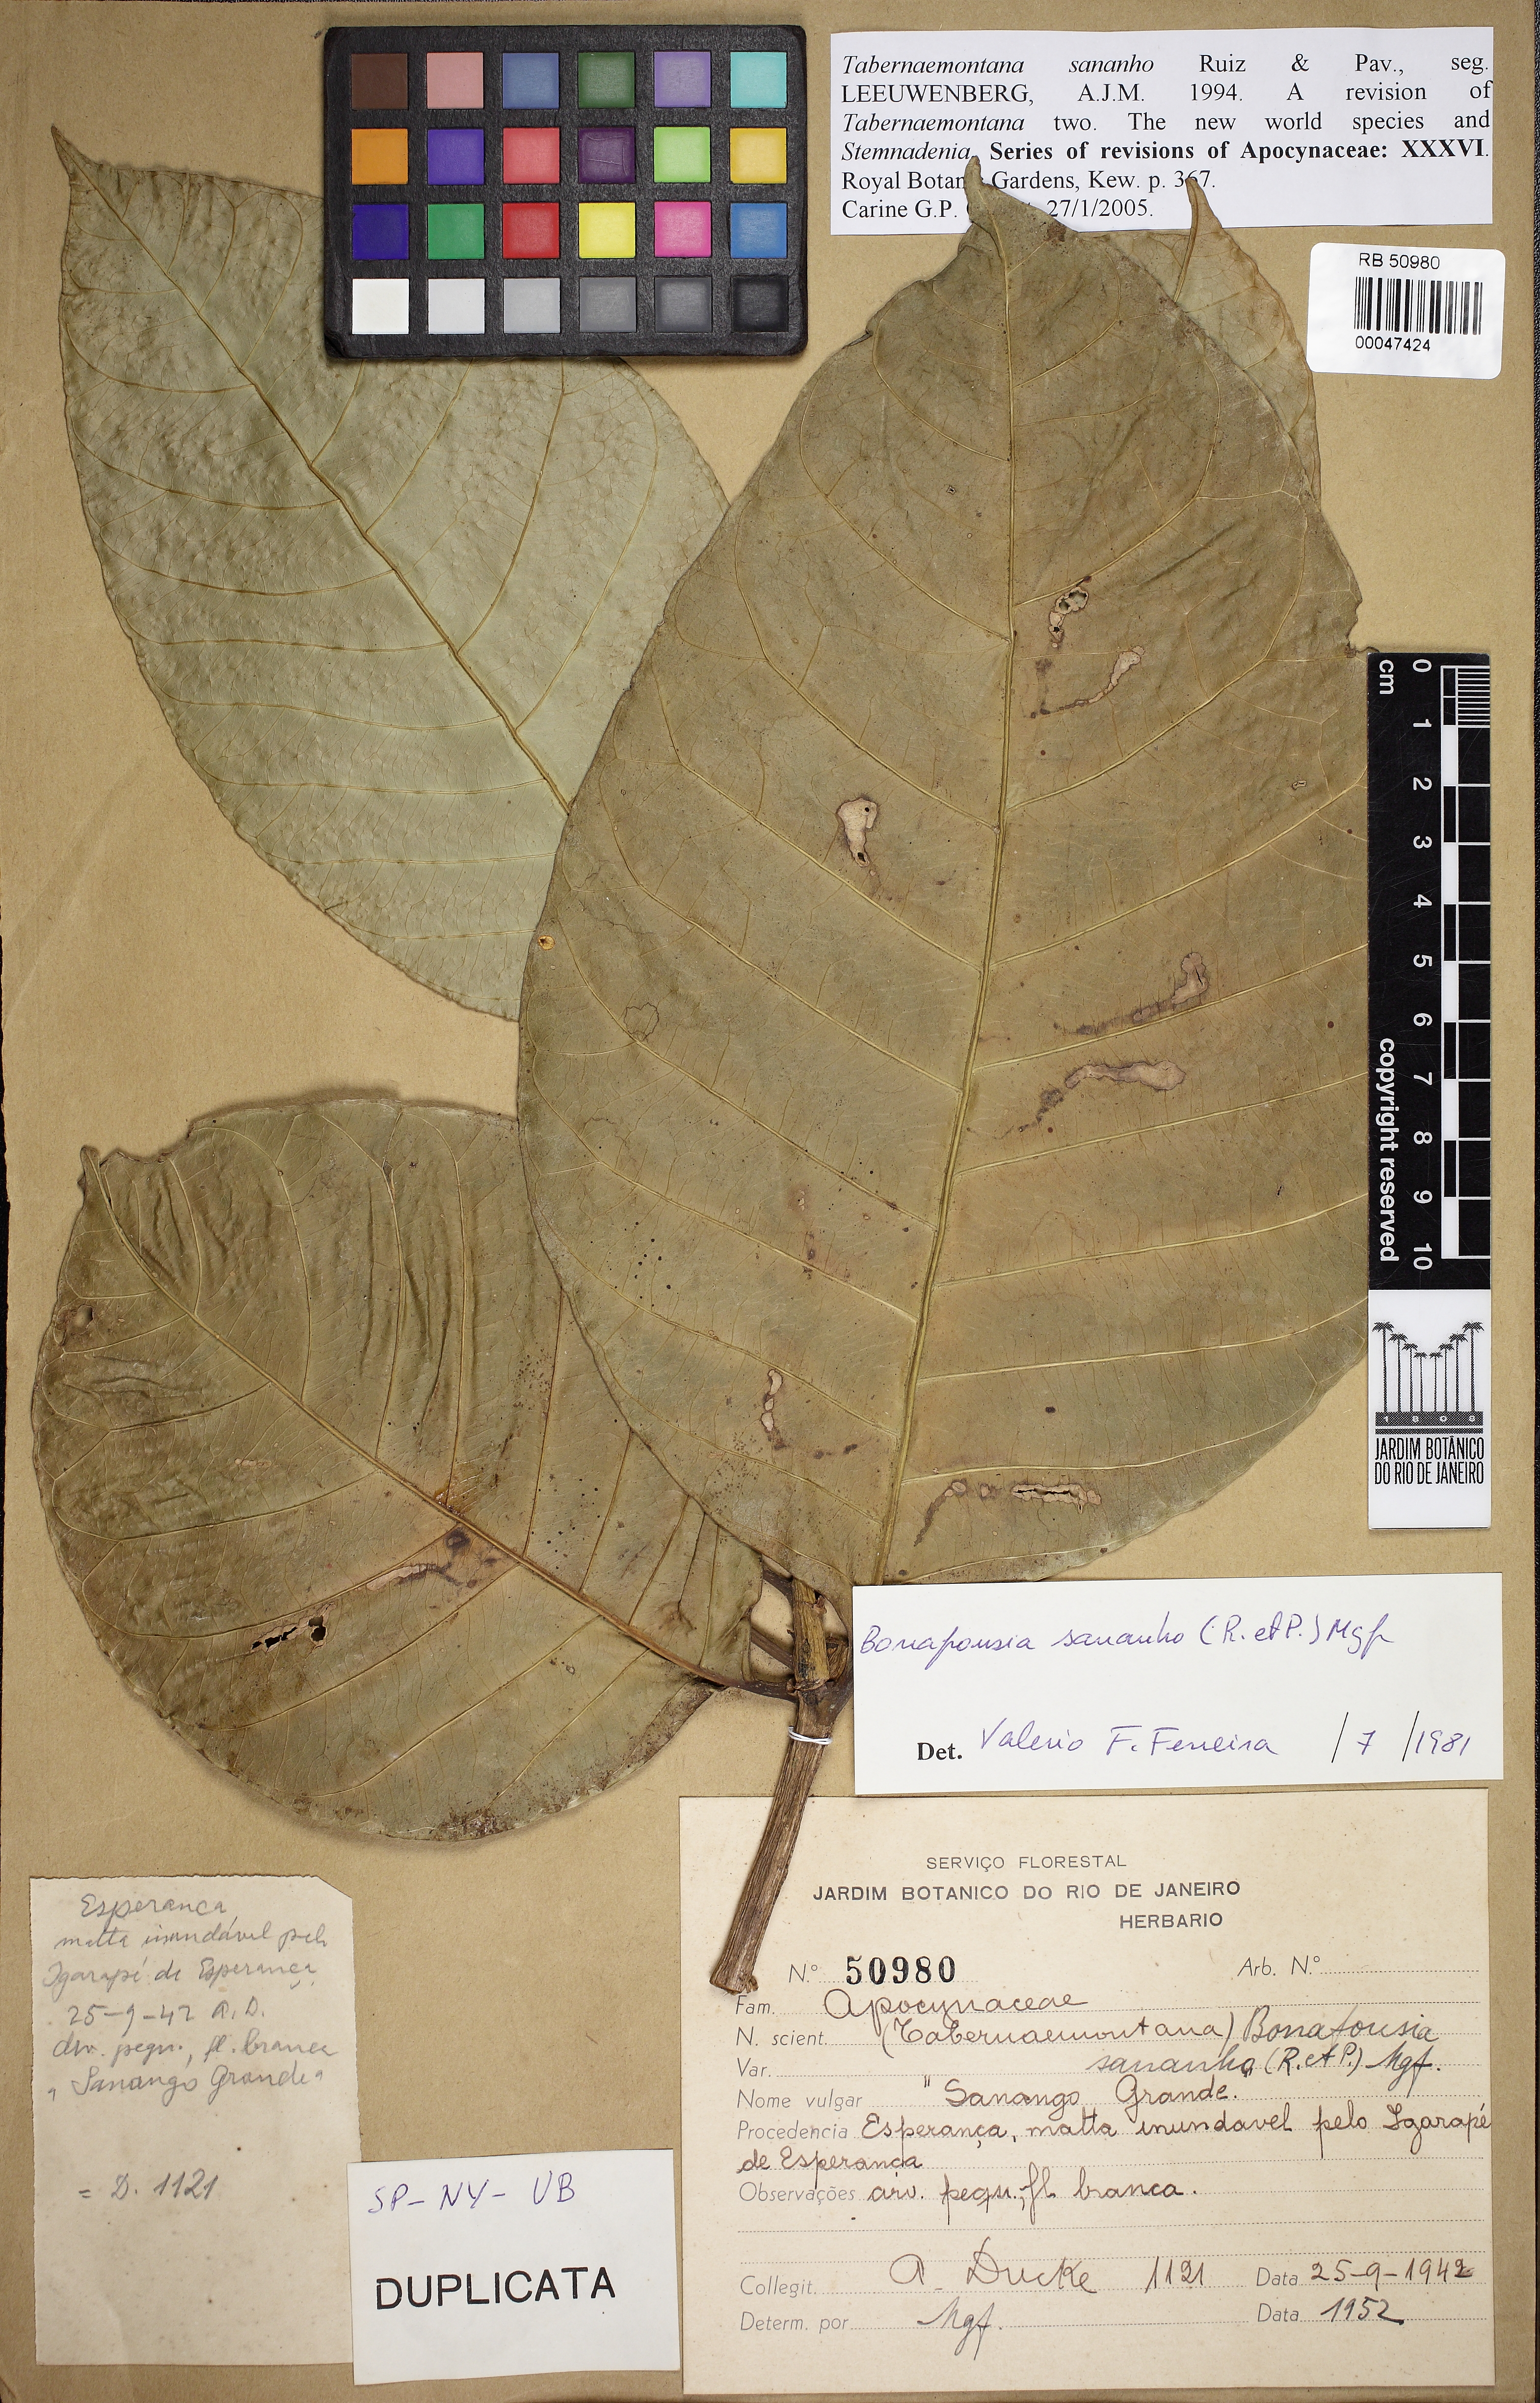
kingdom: Plantae
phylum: Tracheophyta
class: Magnoliopsida
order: Gentianales
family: Apocynaceae
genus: Tabernaemontana
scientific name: Tabernaemontana sananho
